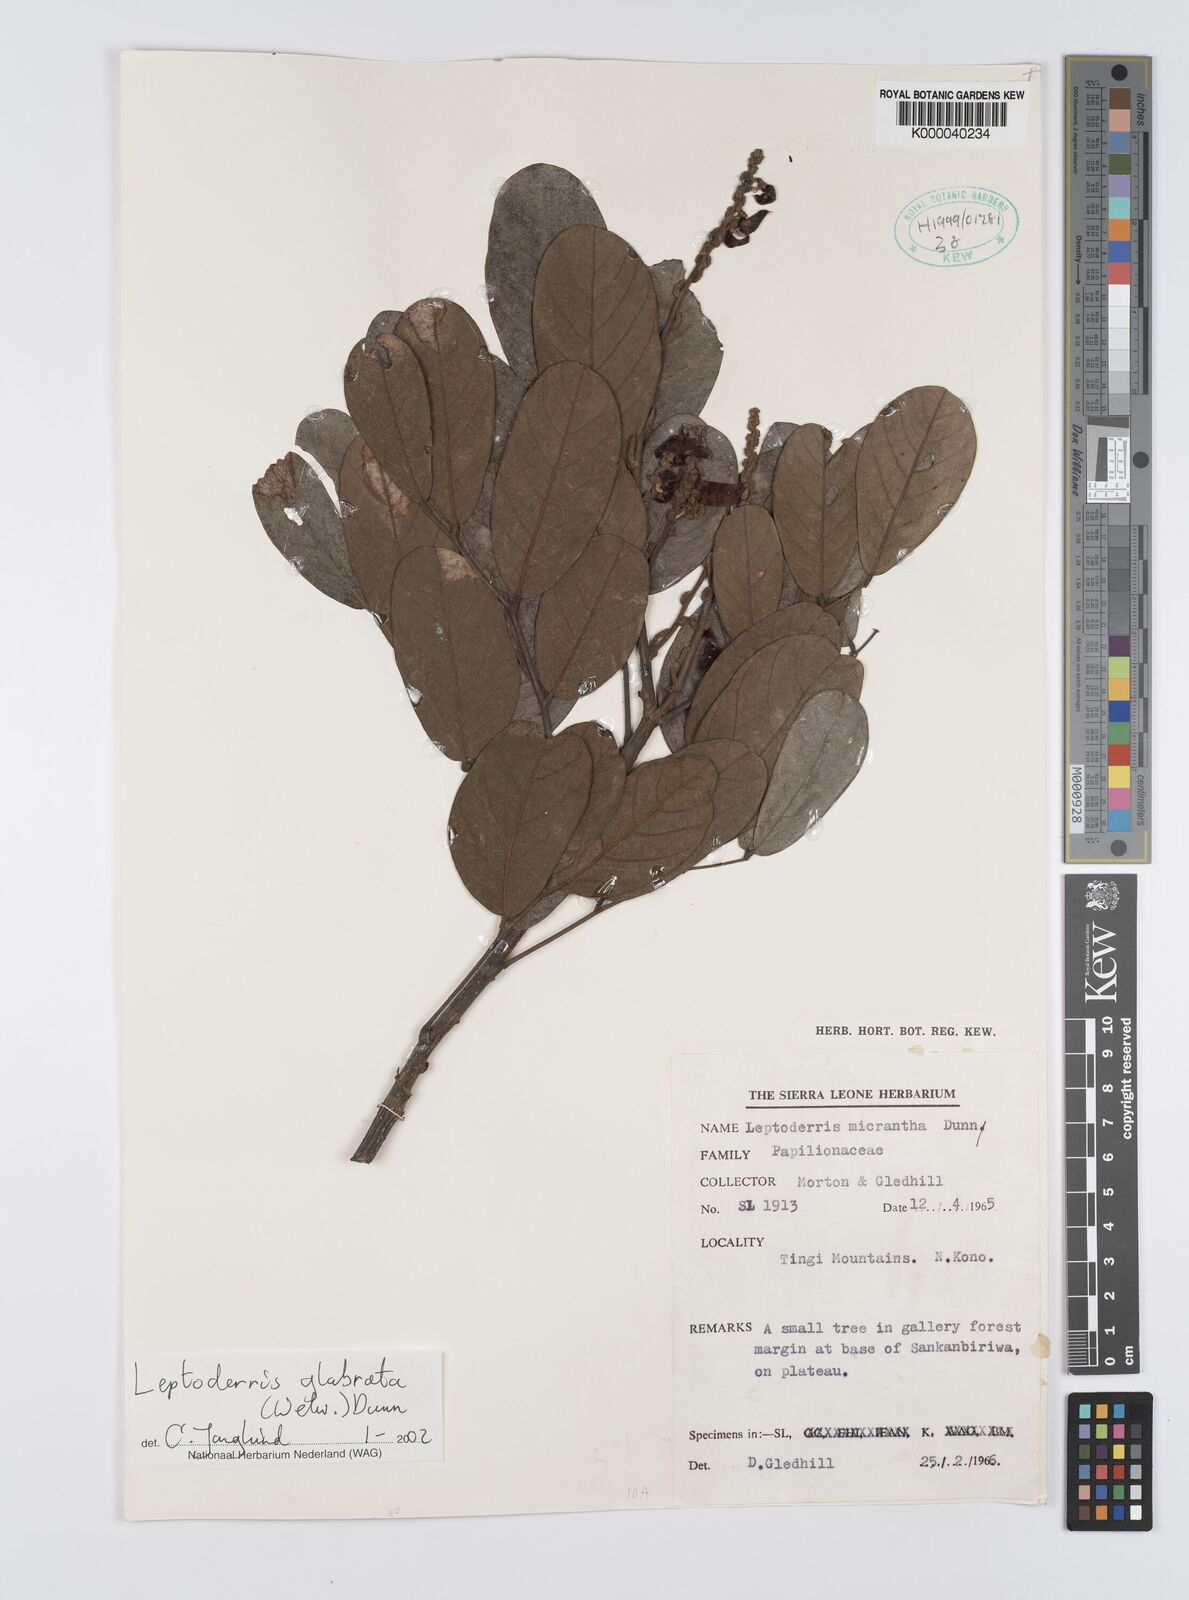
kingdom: Plantae
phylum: Tracheophyta
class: Magnoliopsida
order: Fabales
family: Fabaceae
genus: Leptoderris
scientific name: Leptoderris micrantha
